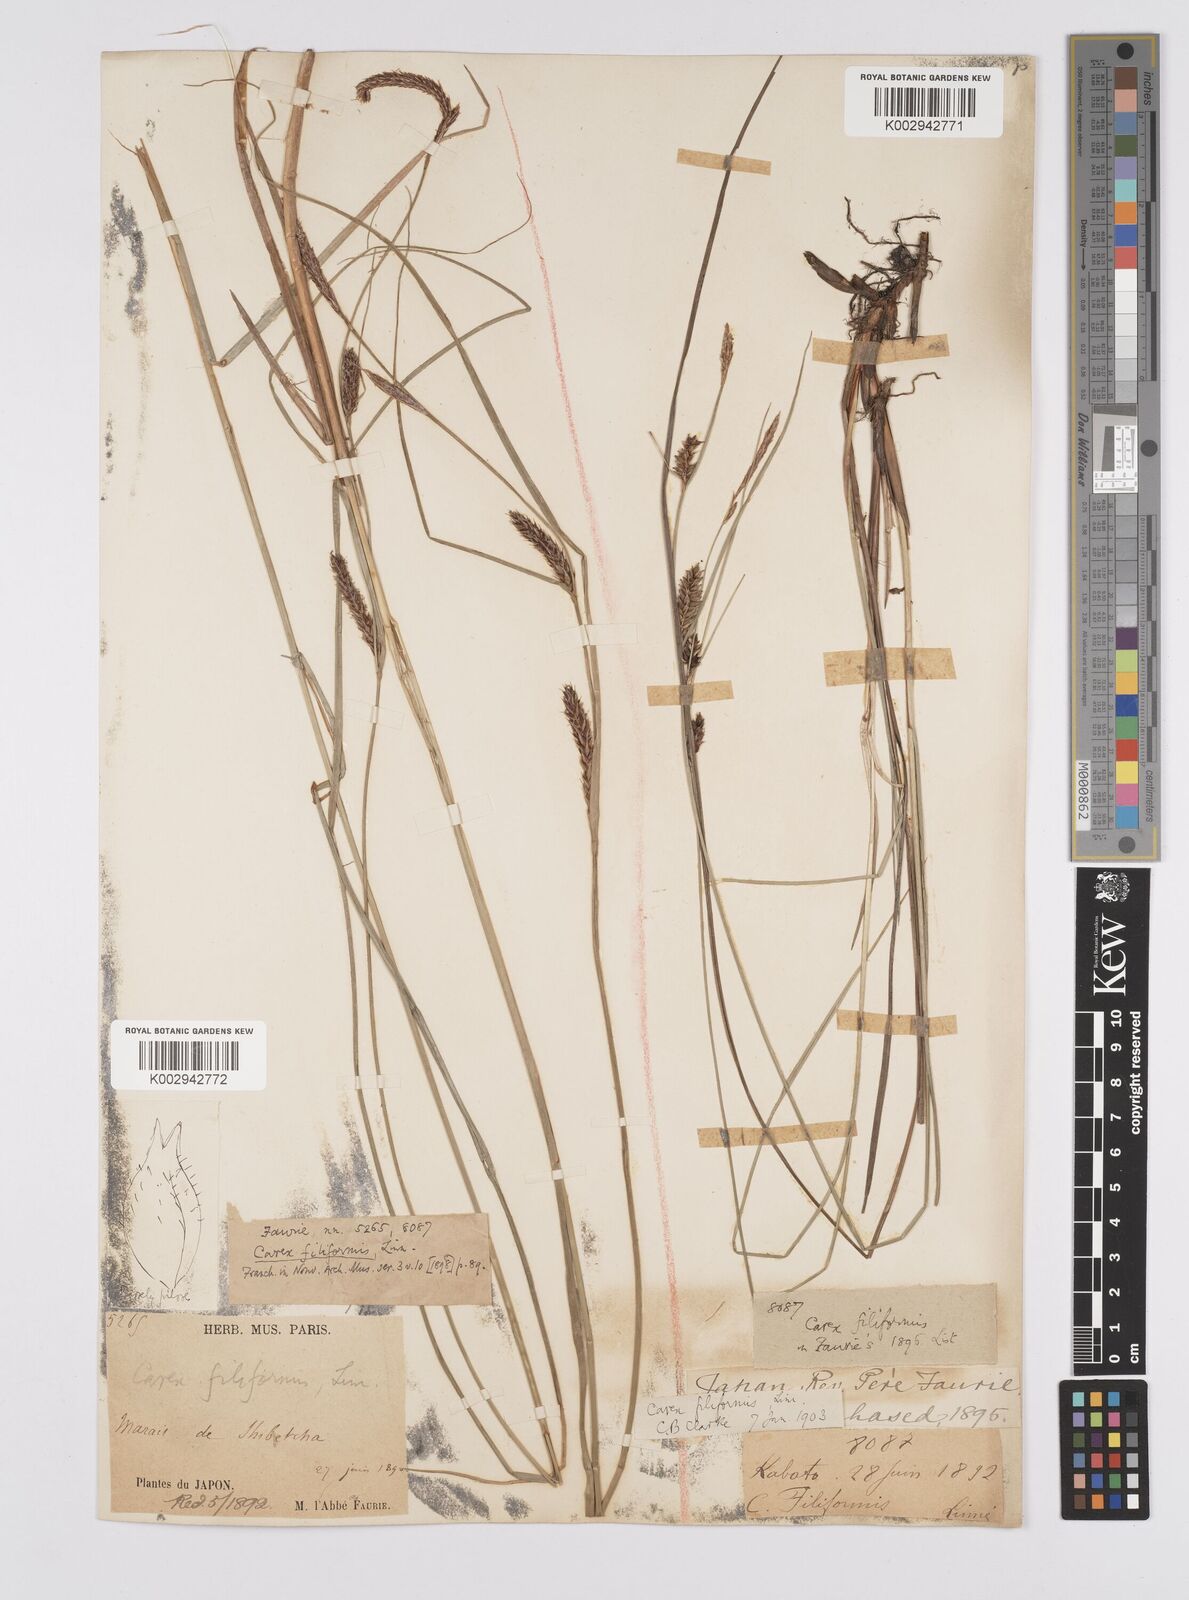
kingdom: Plantae
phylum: Tracheophyta
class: Liliopsida
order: Poales
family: Cyperaceae
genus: Carex
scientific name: Carex lasiocarpa
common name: Slender sedge
